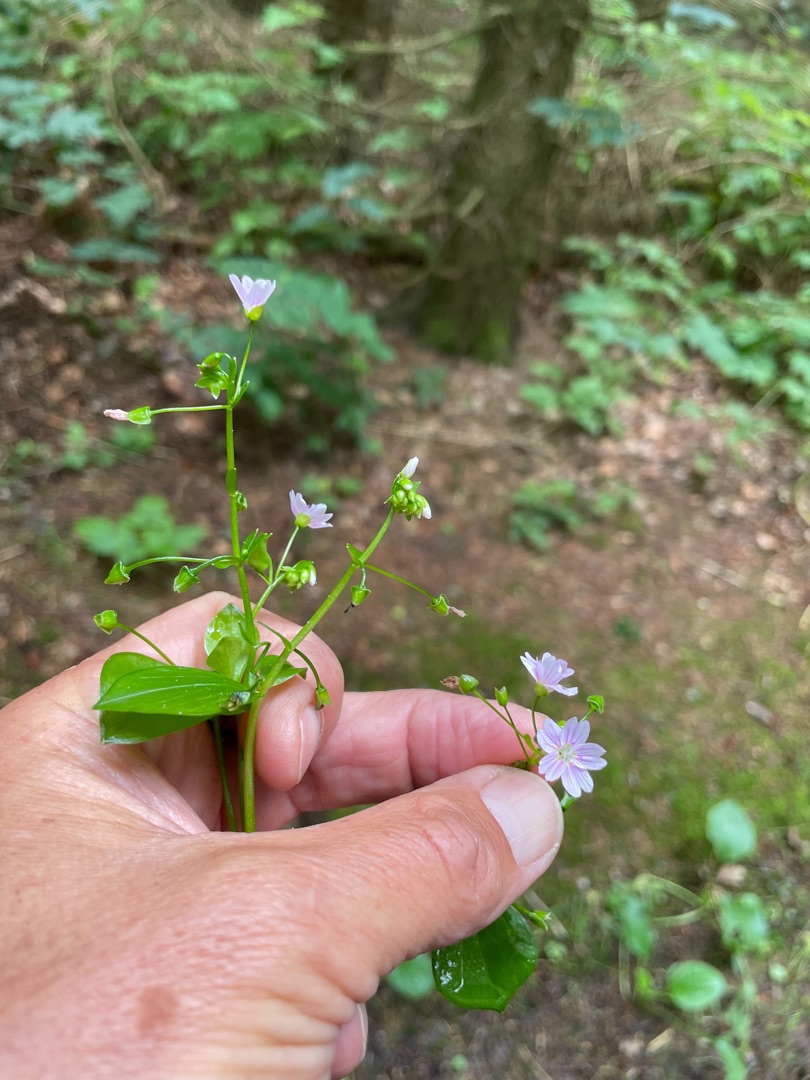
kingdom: Plantae
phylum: Tracheophyta
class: Magnoliopsida
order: Caryophyllales
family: Montiaceae
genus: Claytonia
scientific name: Claytonia sibirica
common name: Sibirisk vinterportulak
